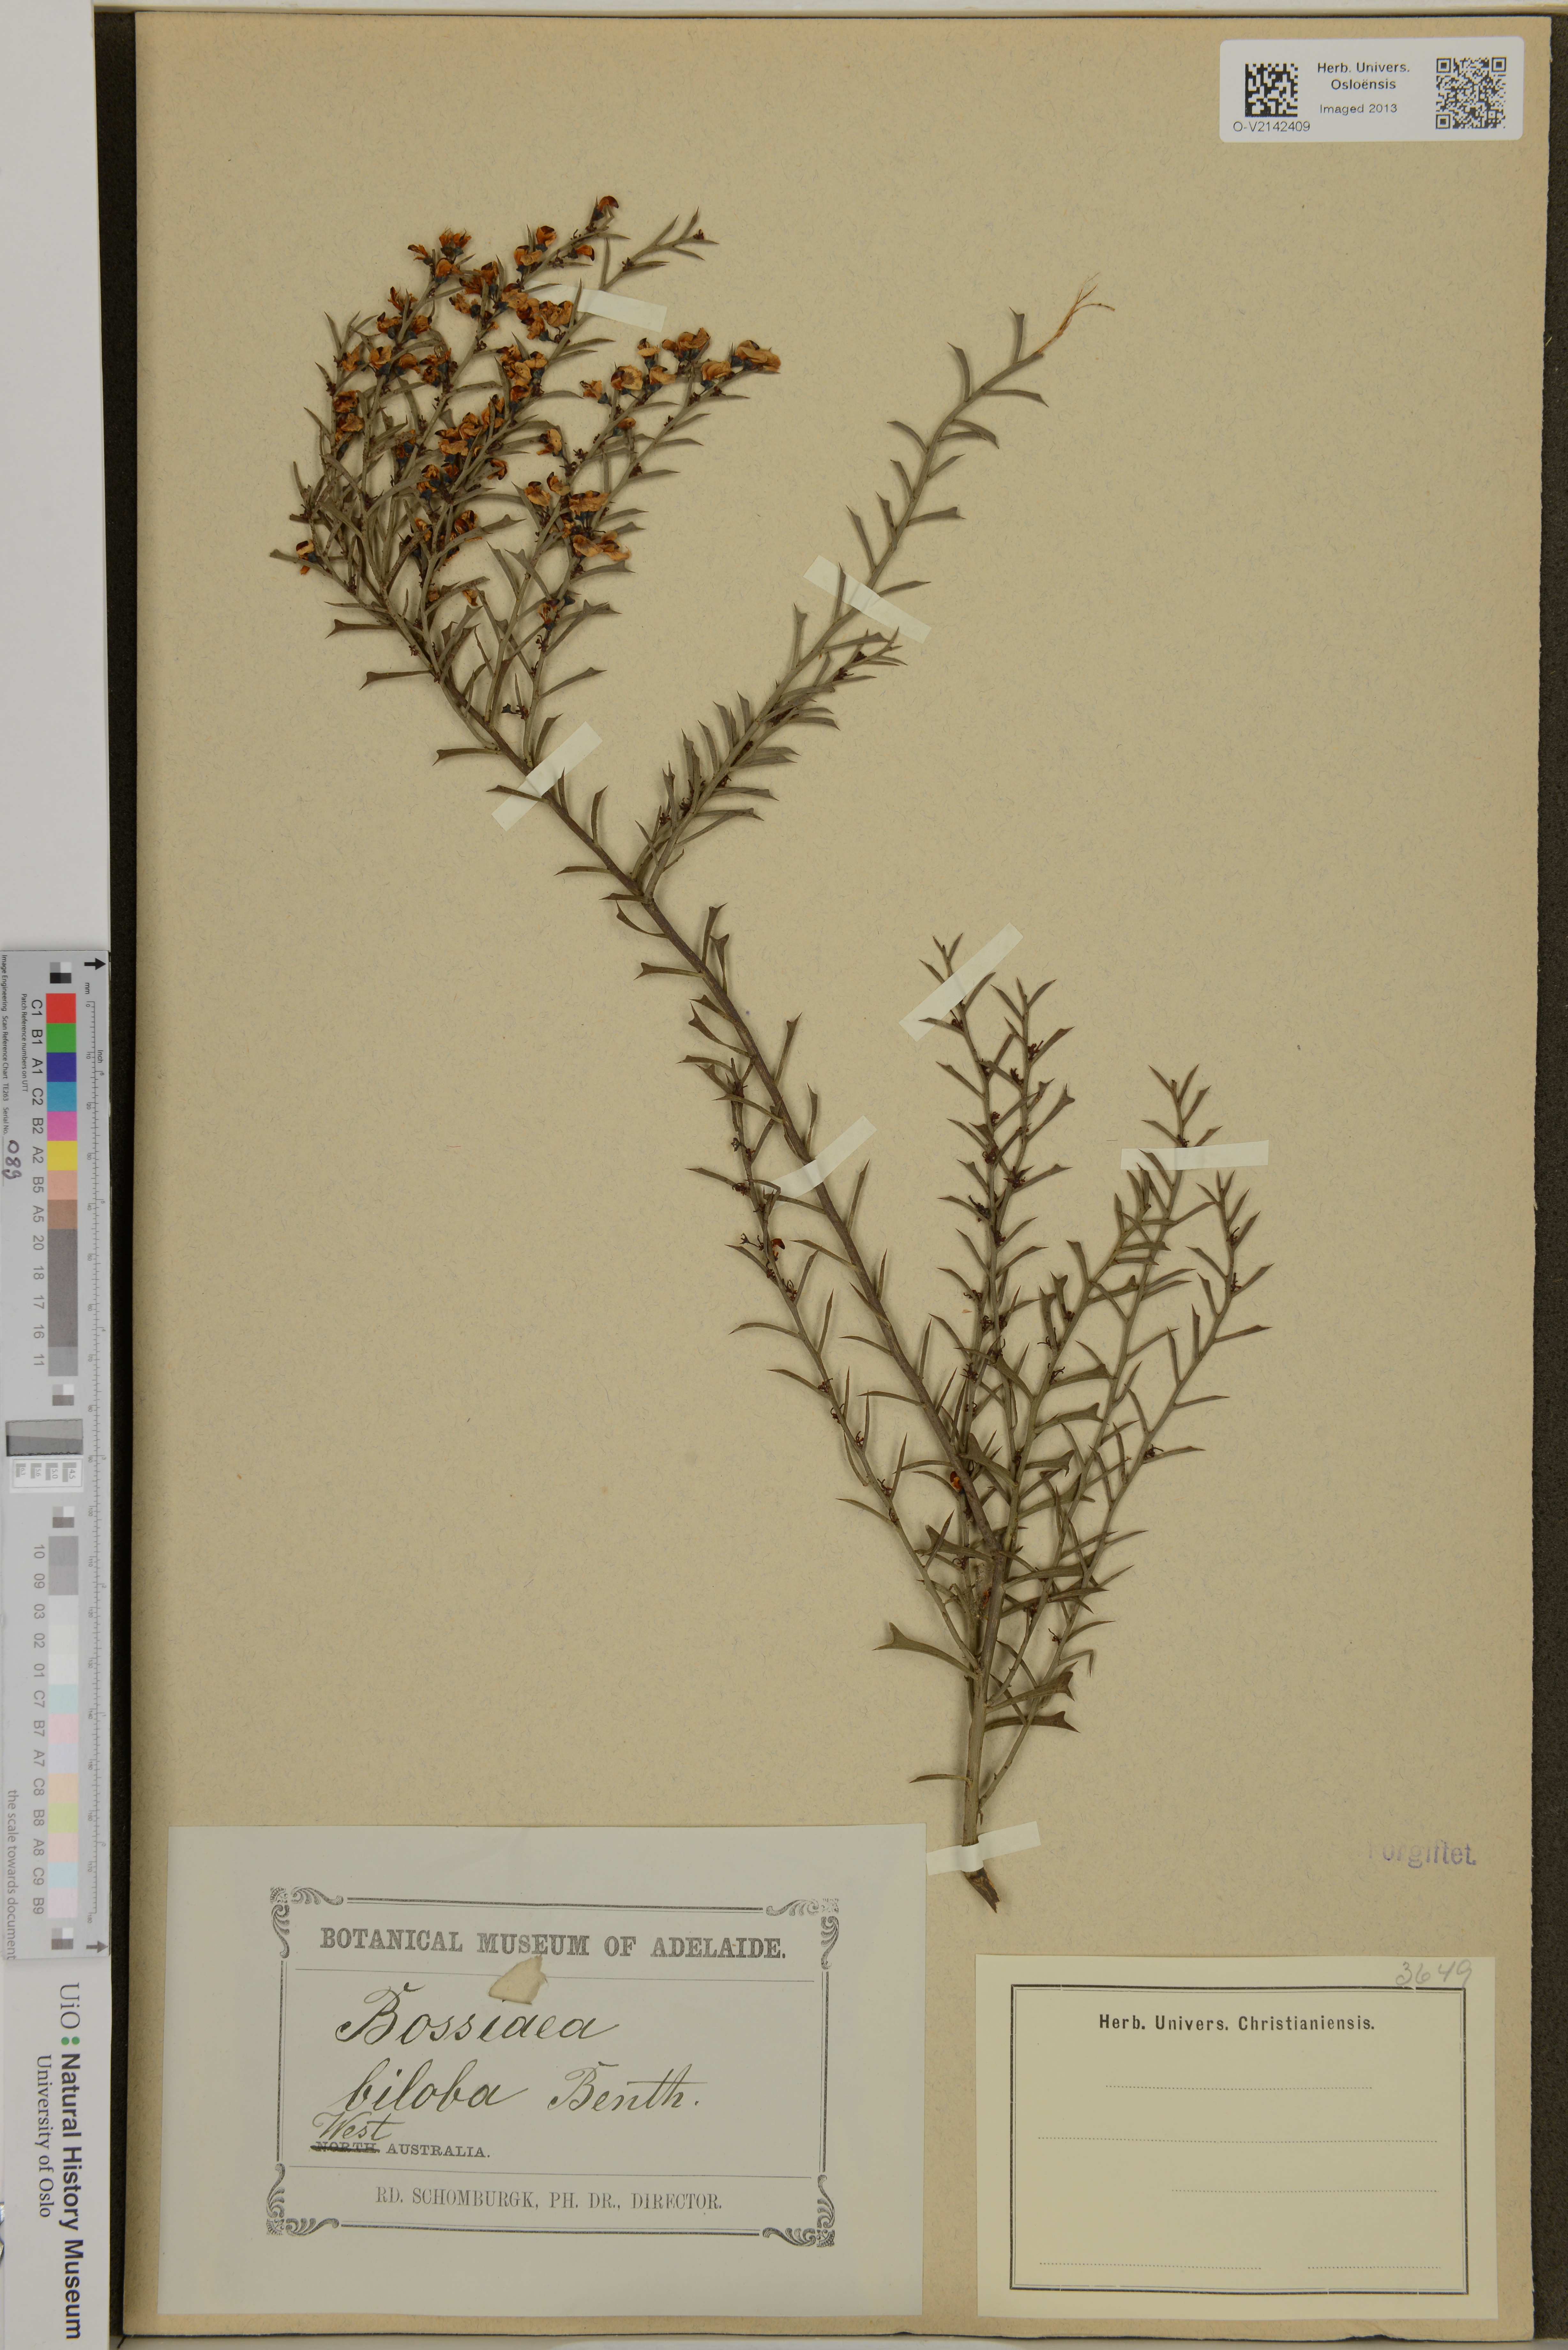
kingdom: Plantae
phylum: Tracheophyta
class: Magnoliopsida
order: Fabales
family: Fabaceae
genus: Cristonia
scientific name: Cristonia biloba
